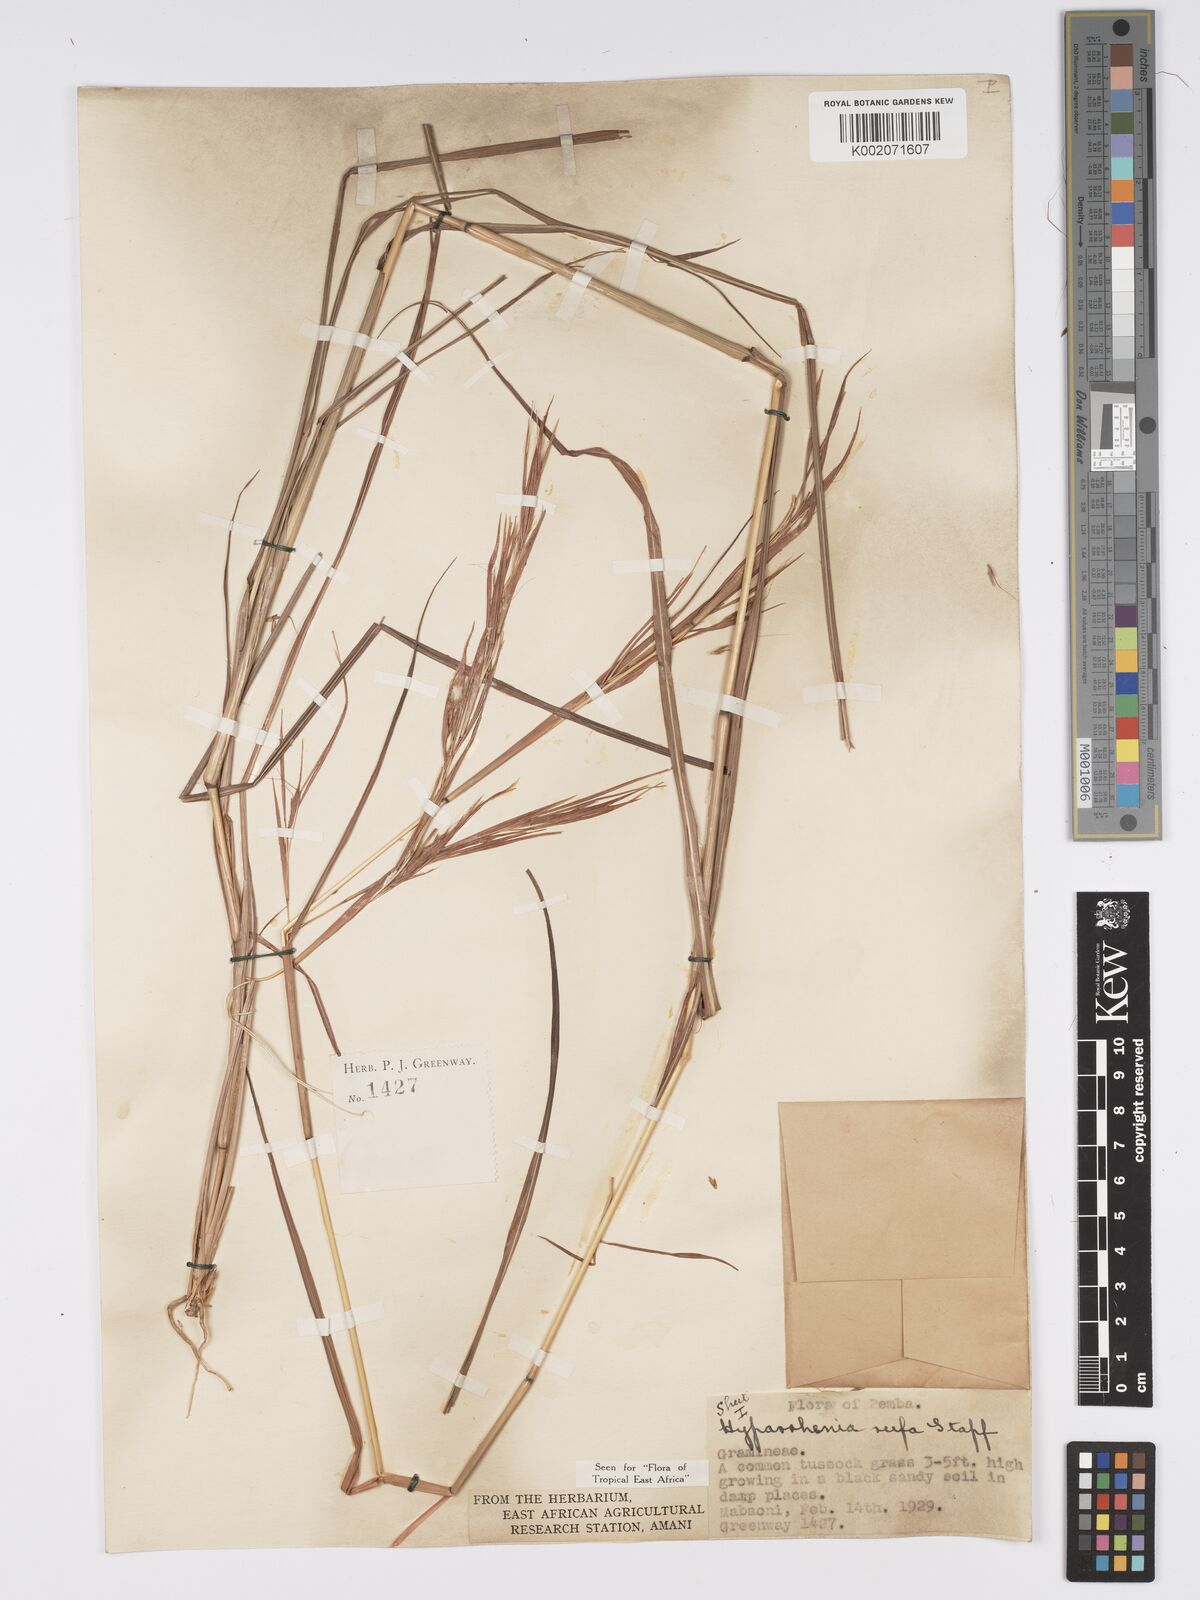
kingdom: Plantae
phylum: Tracheophyta
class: Liliopsida
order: Poales
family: Poaceae
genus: Hyparrhenia
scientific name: Hyparrhenia rufa
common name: Jaraguagrass
